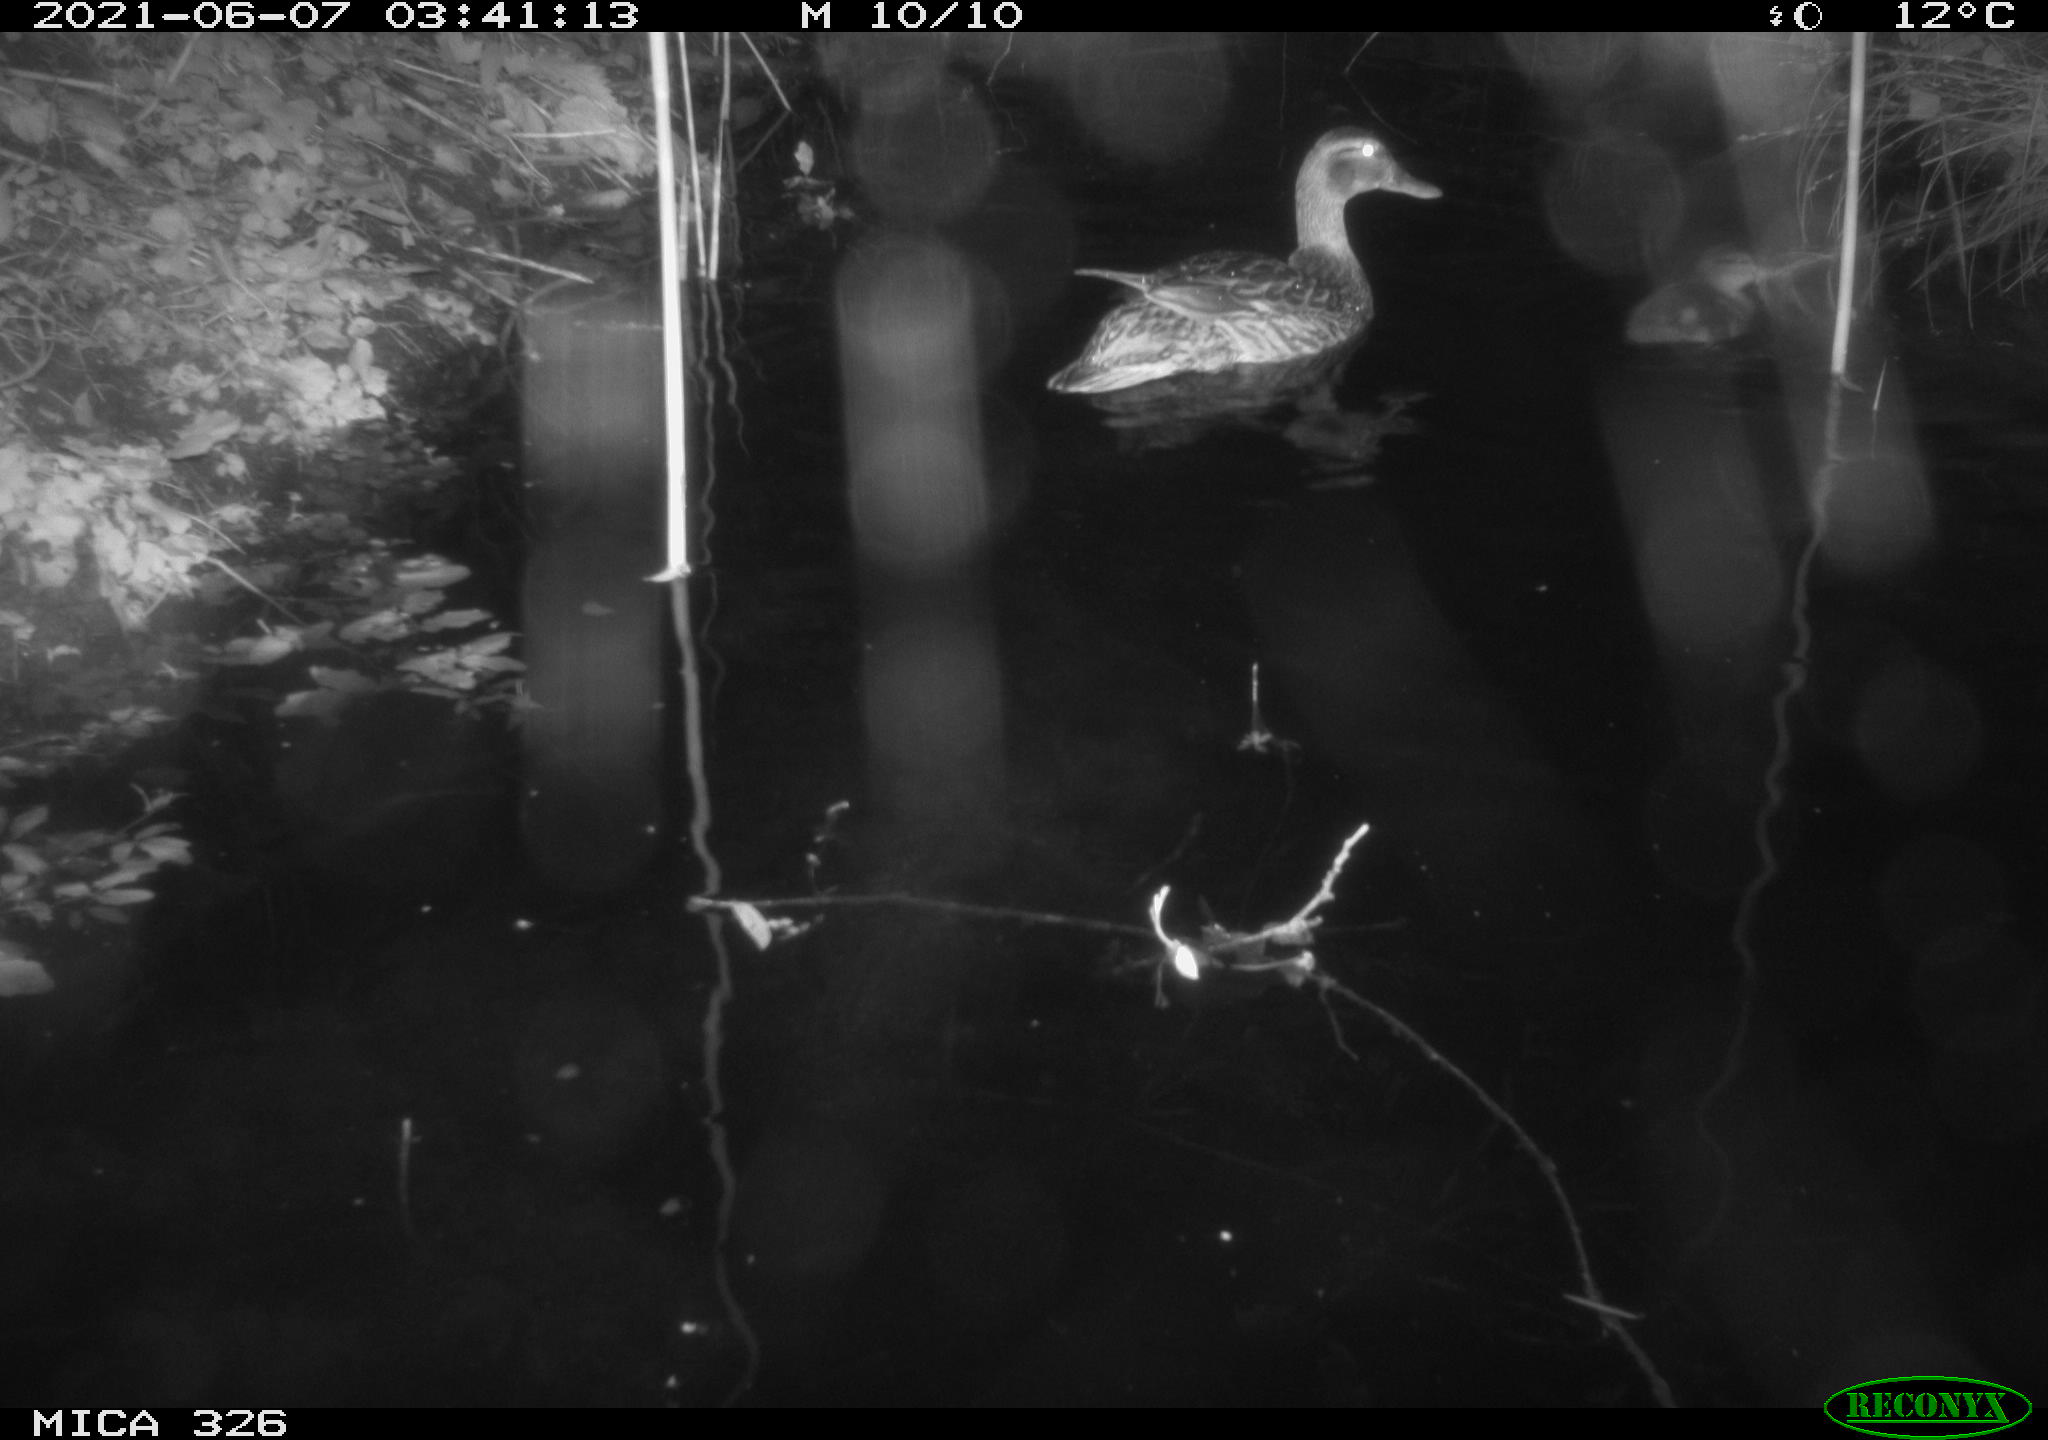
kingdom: Animalia
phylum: Chordata
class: Aves
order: Anseriformes
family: Anatidae
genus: Anas
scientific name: Anas platyrhynchos
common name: Mallard
